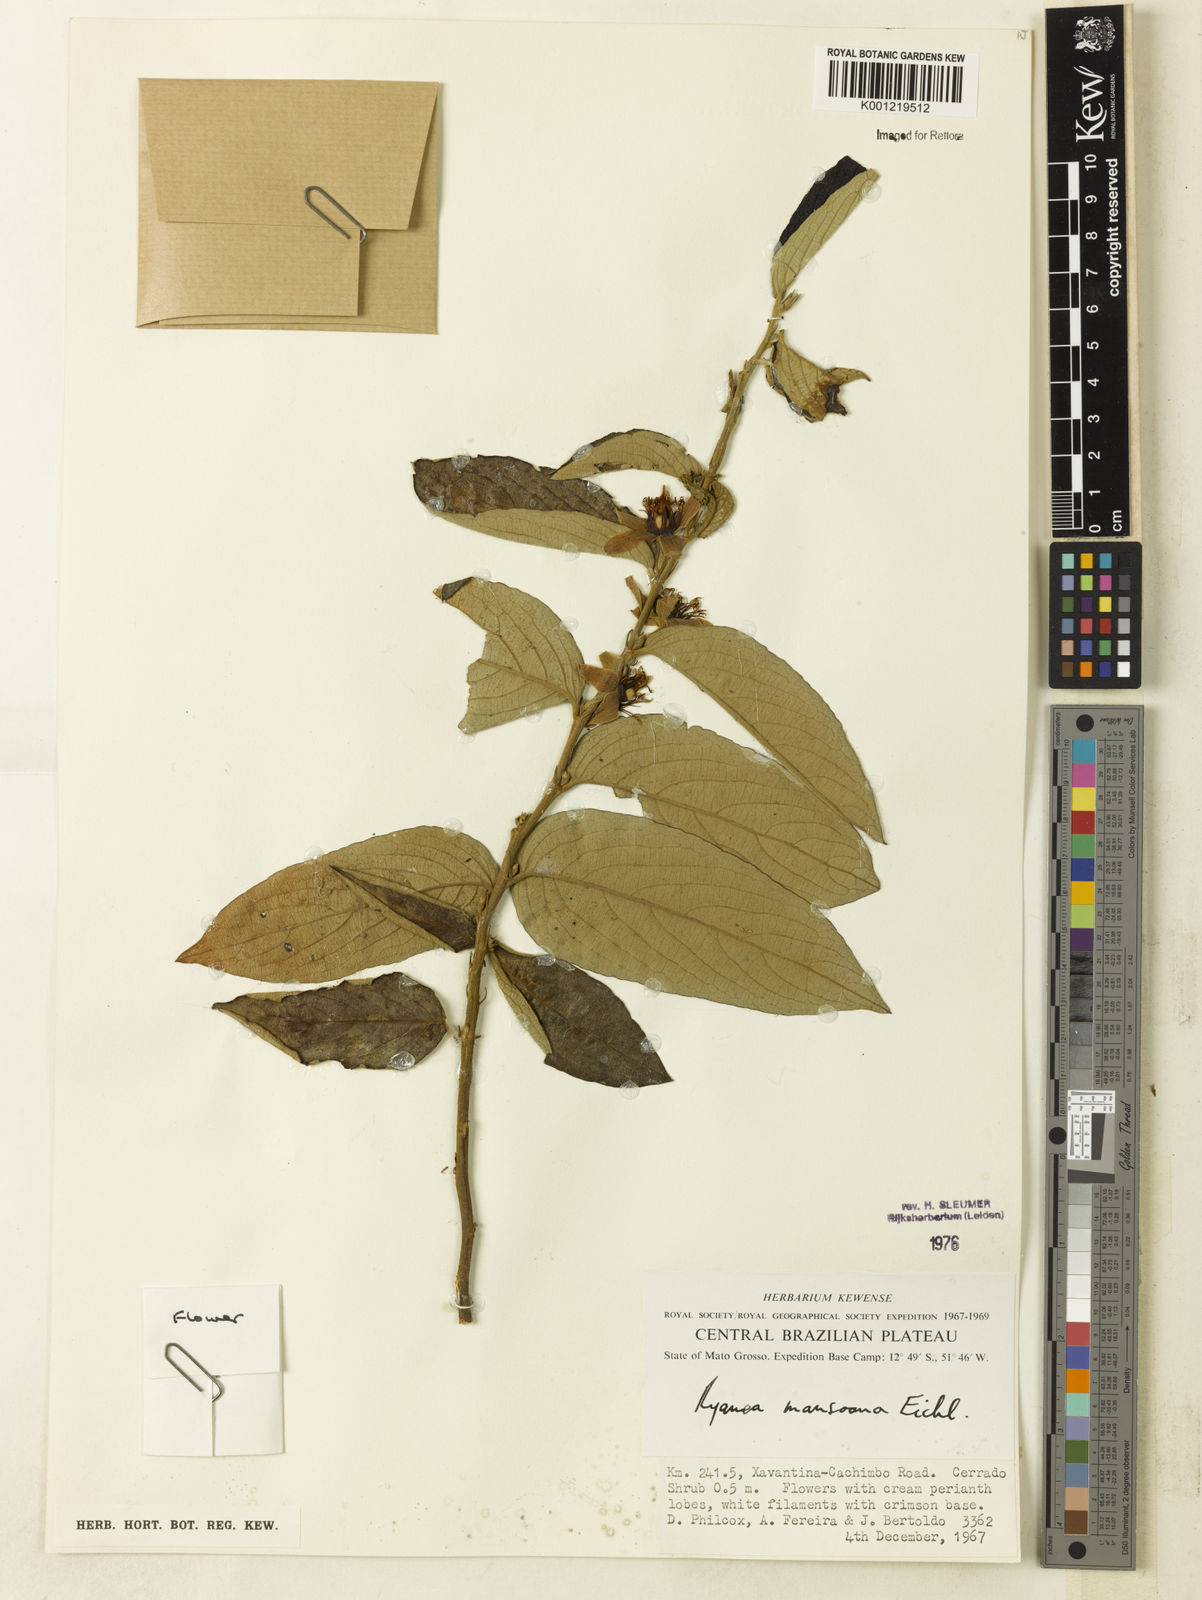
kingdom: Plantae
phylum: Tracheophyta
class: Magnoliopsida
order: Malpighiales
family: Salicaceae
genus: Ryania
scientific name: Ryania mansoana
